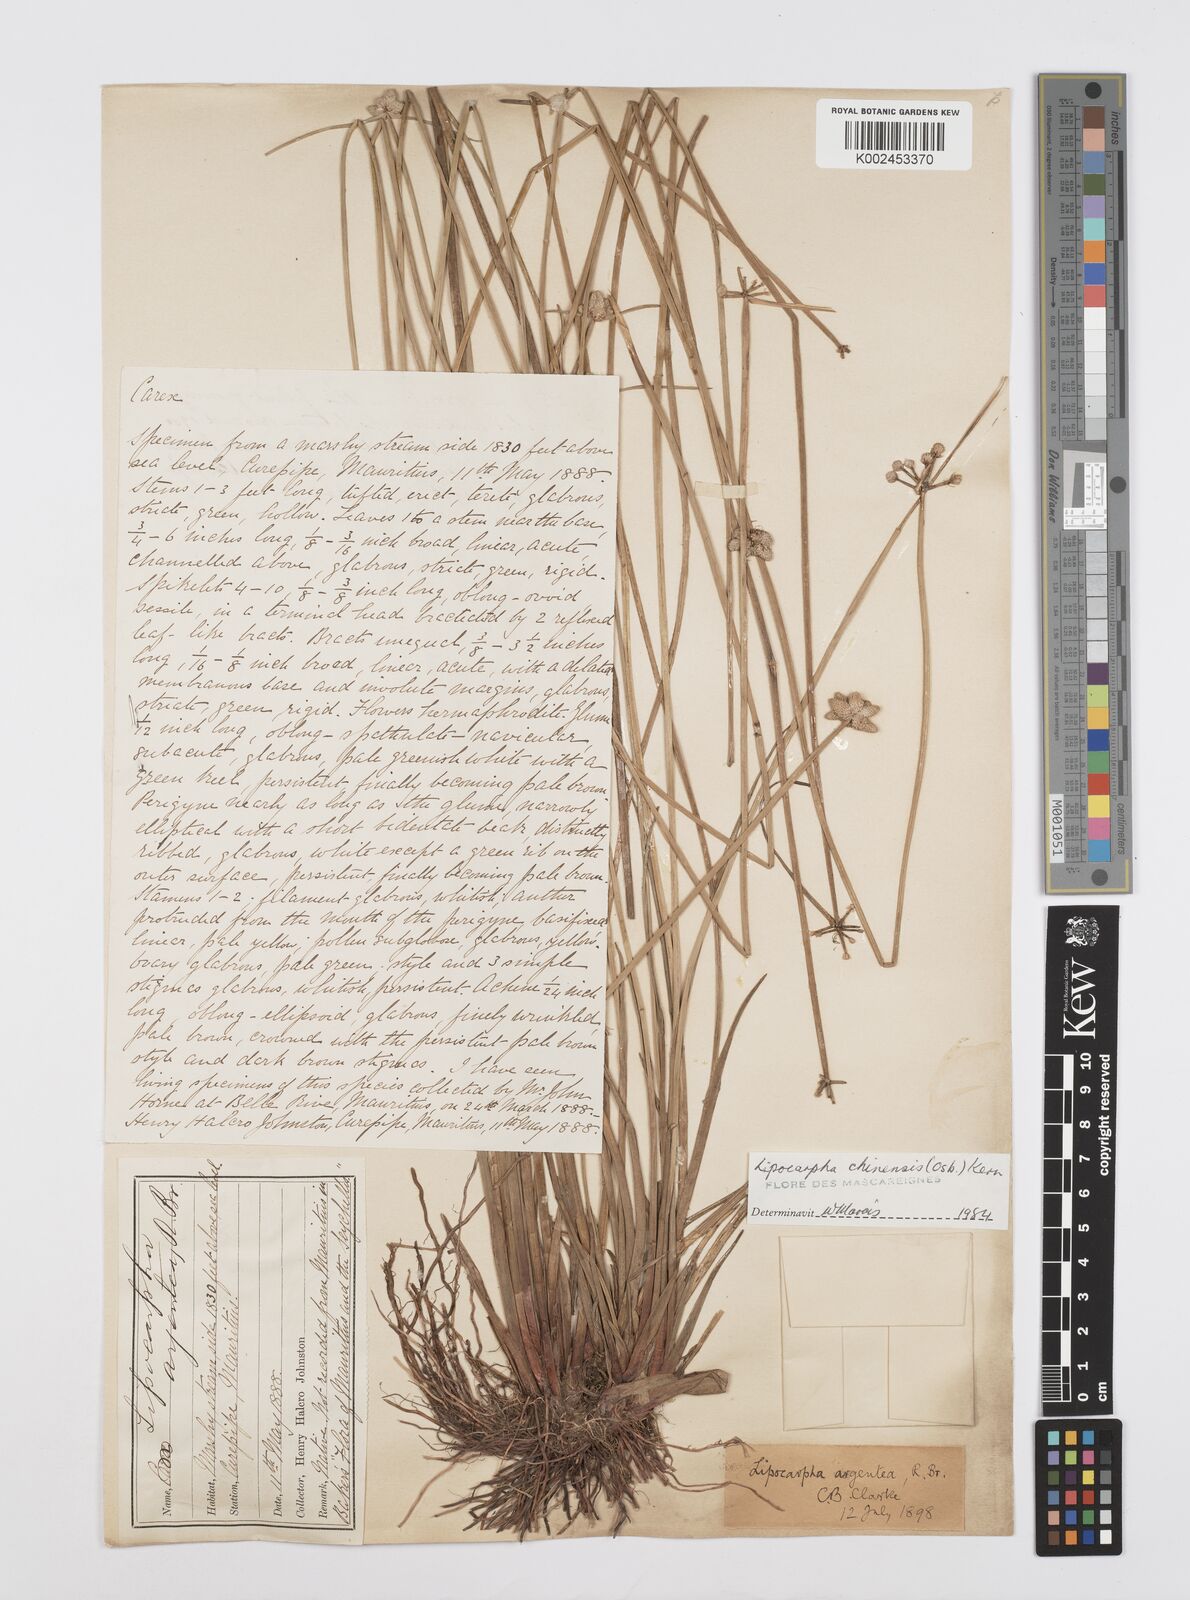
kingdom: Plantae
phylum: Tracheophyta
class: Liliopsida
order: Poales
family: Cyperaceae
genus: Cyperus
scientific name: Cyperus
